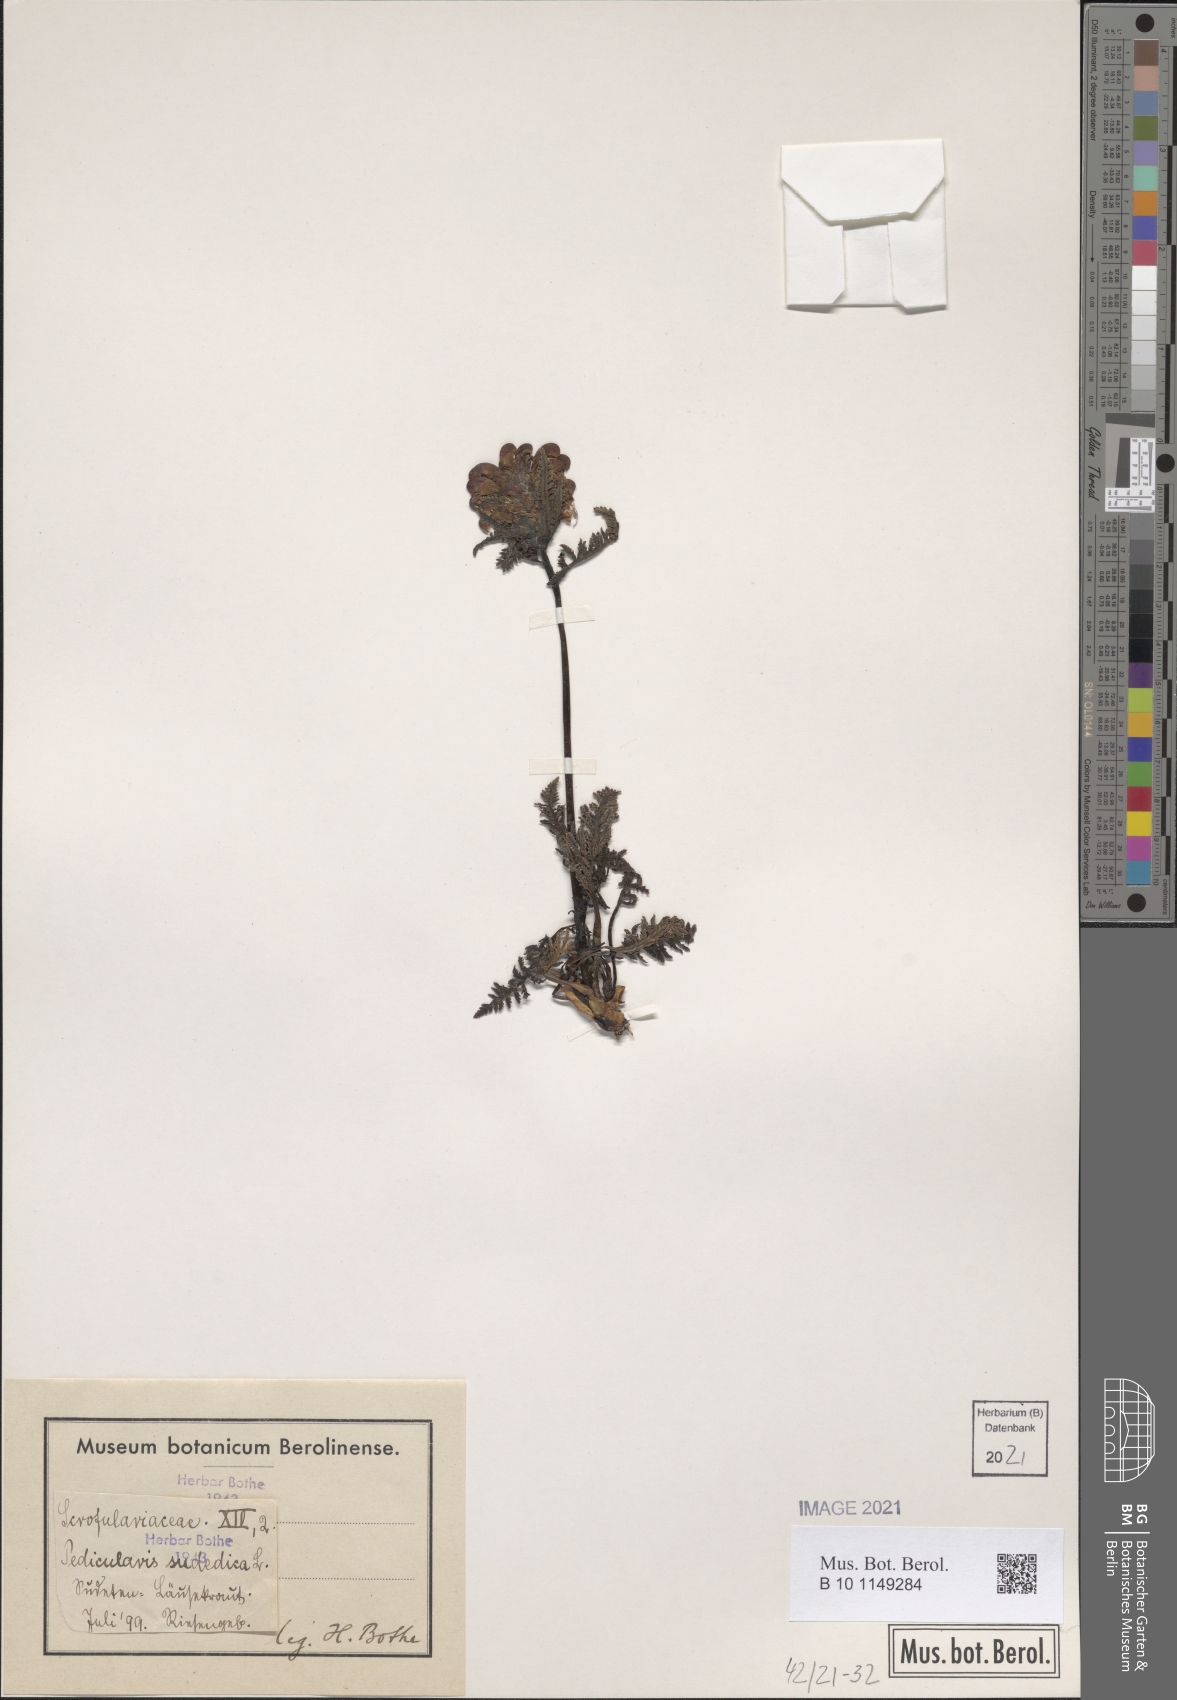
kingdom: Plantae
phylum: Tracheophyta
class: Magnoliopsida
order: Lamiales
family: Orobanchaceae
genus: Pedicularis
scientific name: Pedicularis sudetica
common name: Sudeten lousewort
